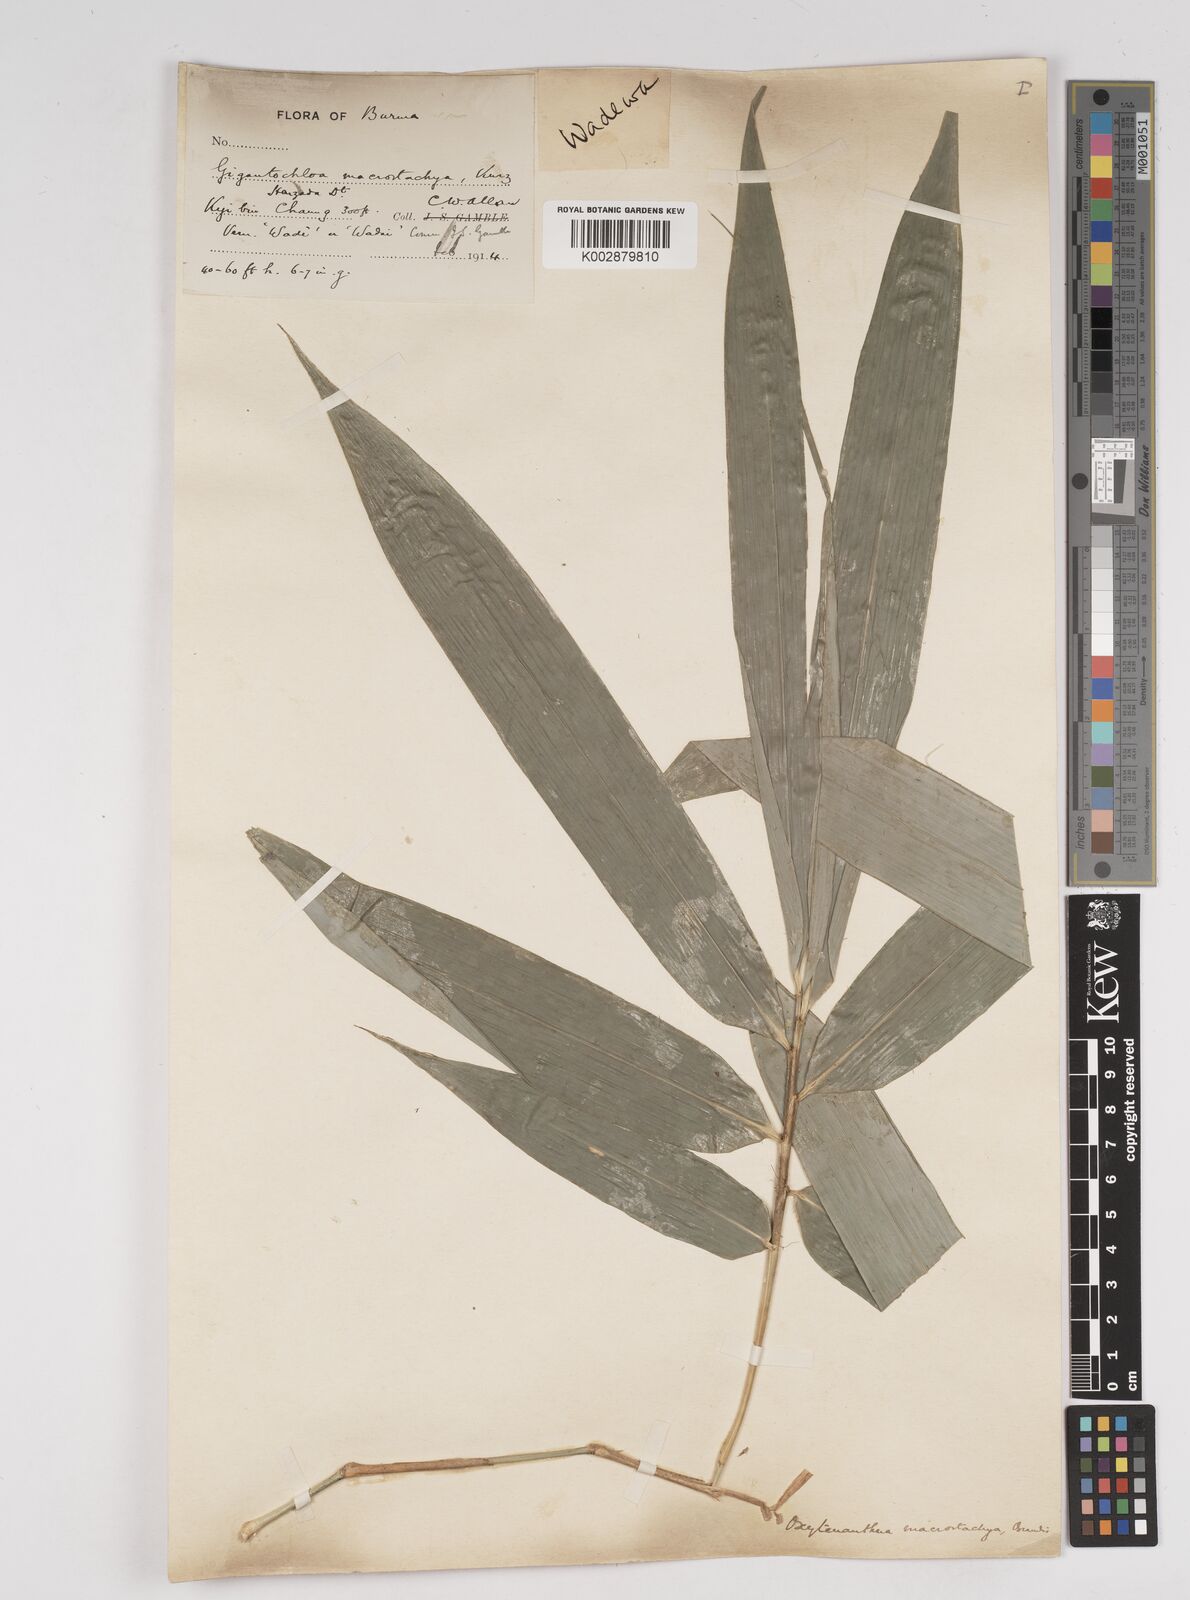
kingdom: Plantae
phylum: Tracheophyta
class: Liliopsida
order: Poales
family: Poaceae
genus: Gigantochloa
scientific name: Gigantochloa macrostachya
